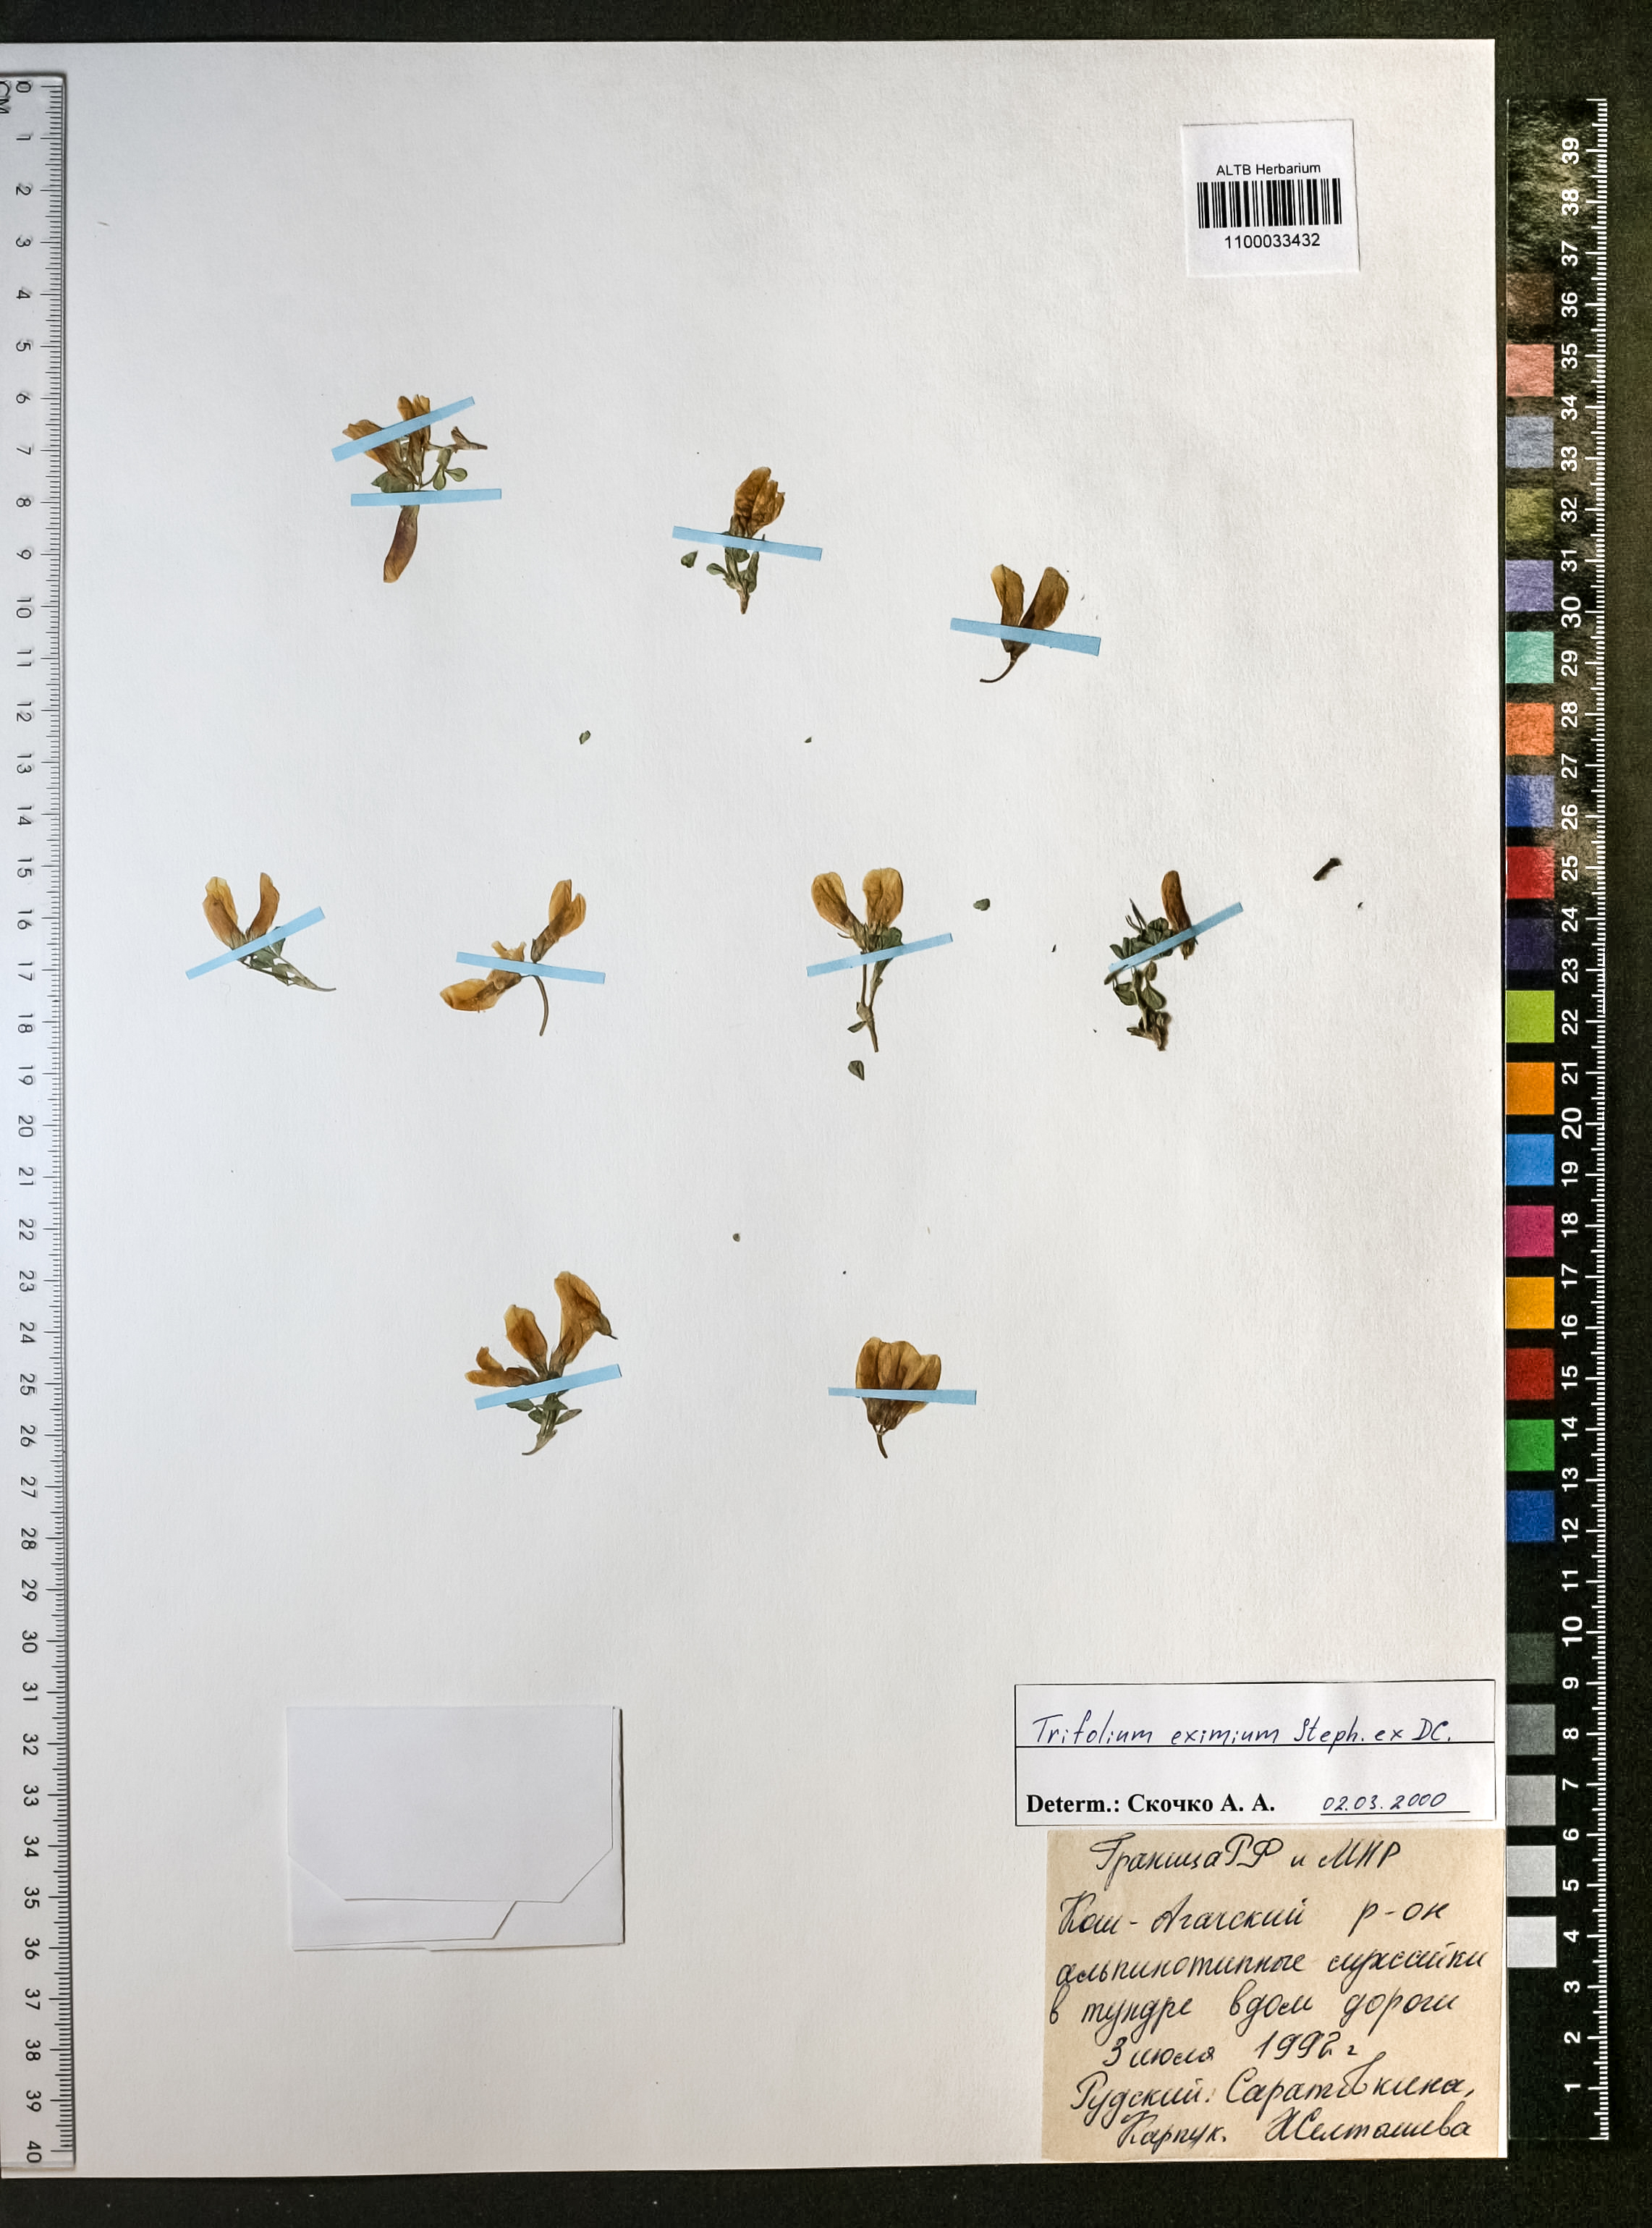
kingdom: Plantae
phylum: Tracheophyta
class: Magnoliopsida
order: Fabales
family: Fabaceae
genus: Trifolium
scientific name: Trifolium eximium
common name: Excellent clover
